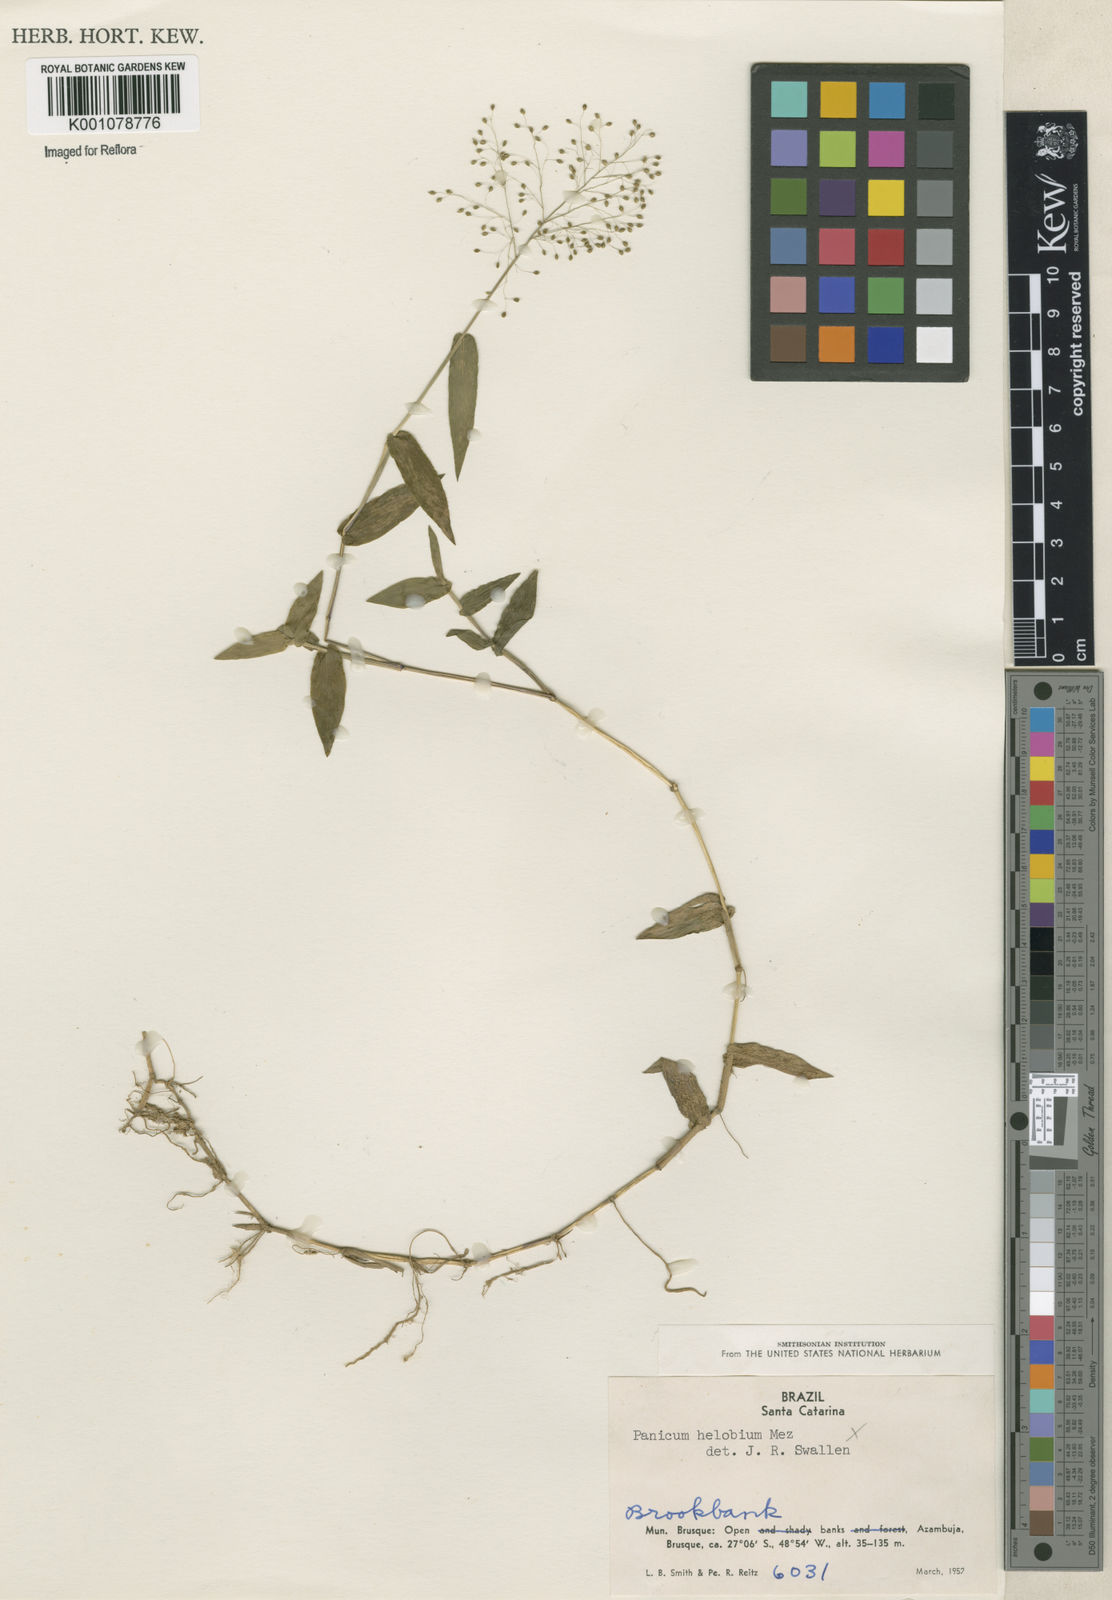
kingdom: Plantae
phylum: Tracheophyta
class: Liliopsida
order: Poales
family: Poaceae
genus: Panicum
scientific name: Panicum
